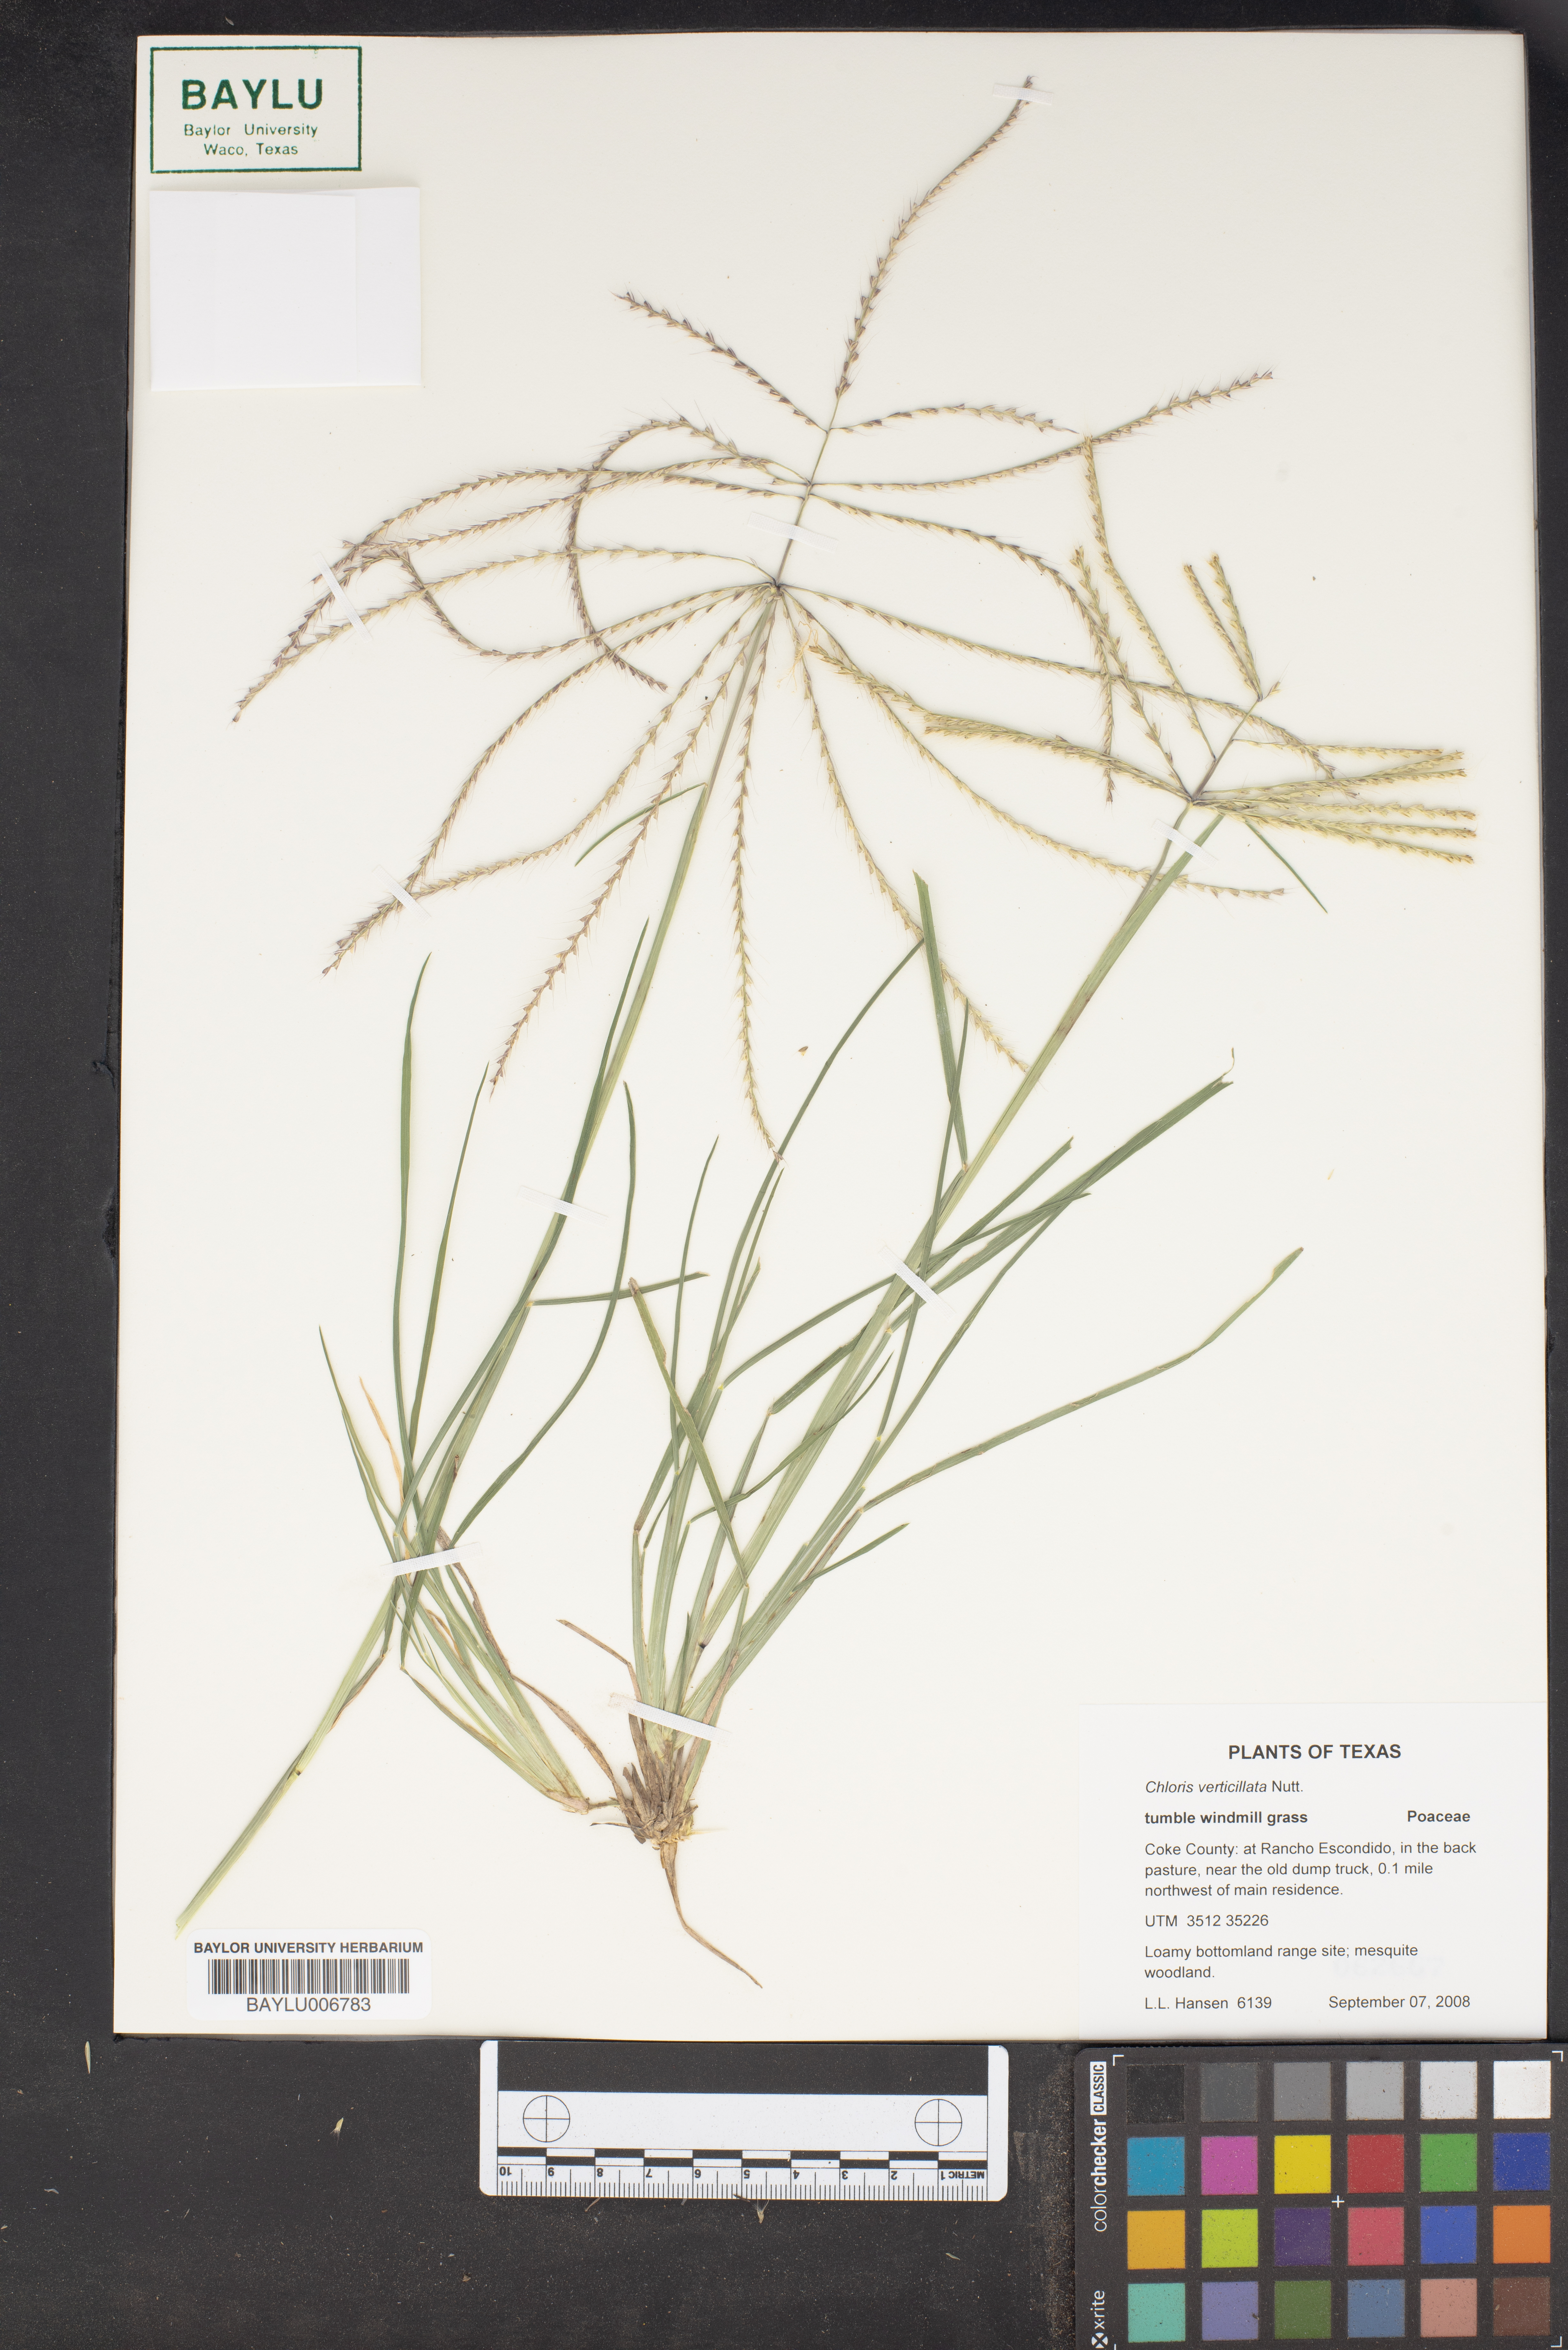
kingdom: Plantae
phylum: Tracheophyta
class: Liliopsida
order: Poales
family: Poaceae
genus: Chloris
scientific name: Chloris verticillata
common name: Tumble windmill grass
